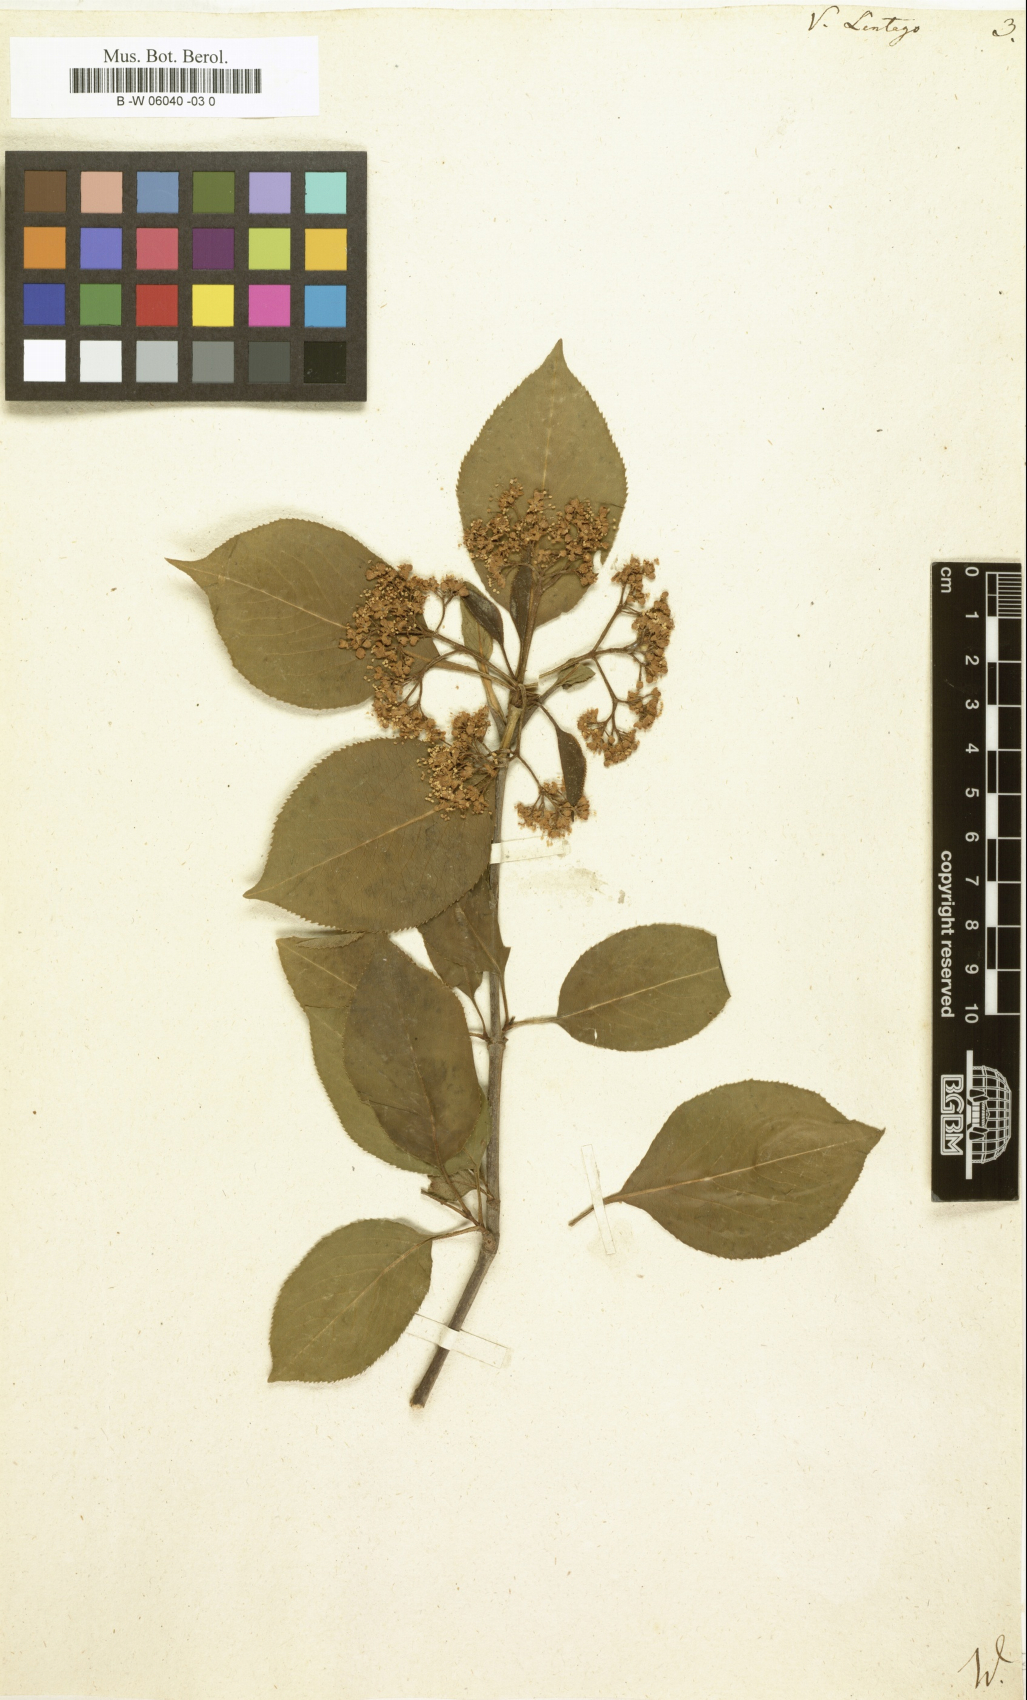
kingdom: Plantae
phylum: Tracheophyta
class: Magnoliopsida
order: Dipsacales
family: Viburnaceae
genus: Viburnum
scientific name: Viburnum lentago
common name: Black haw
